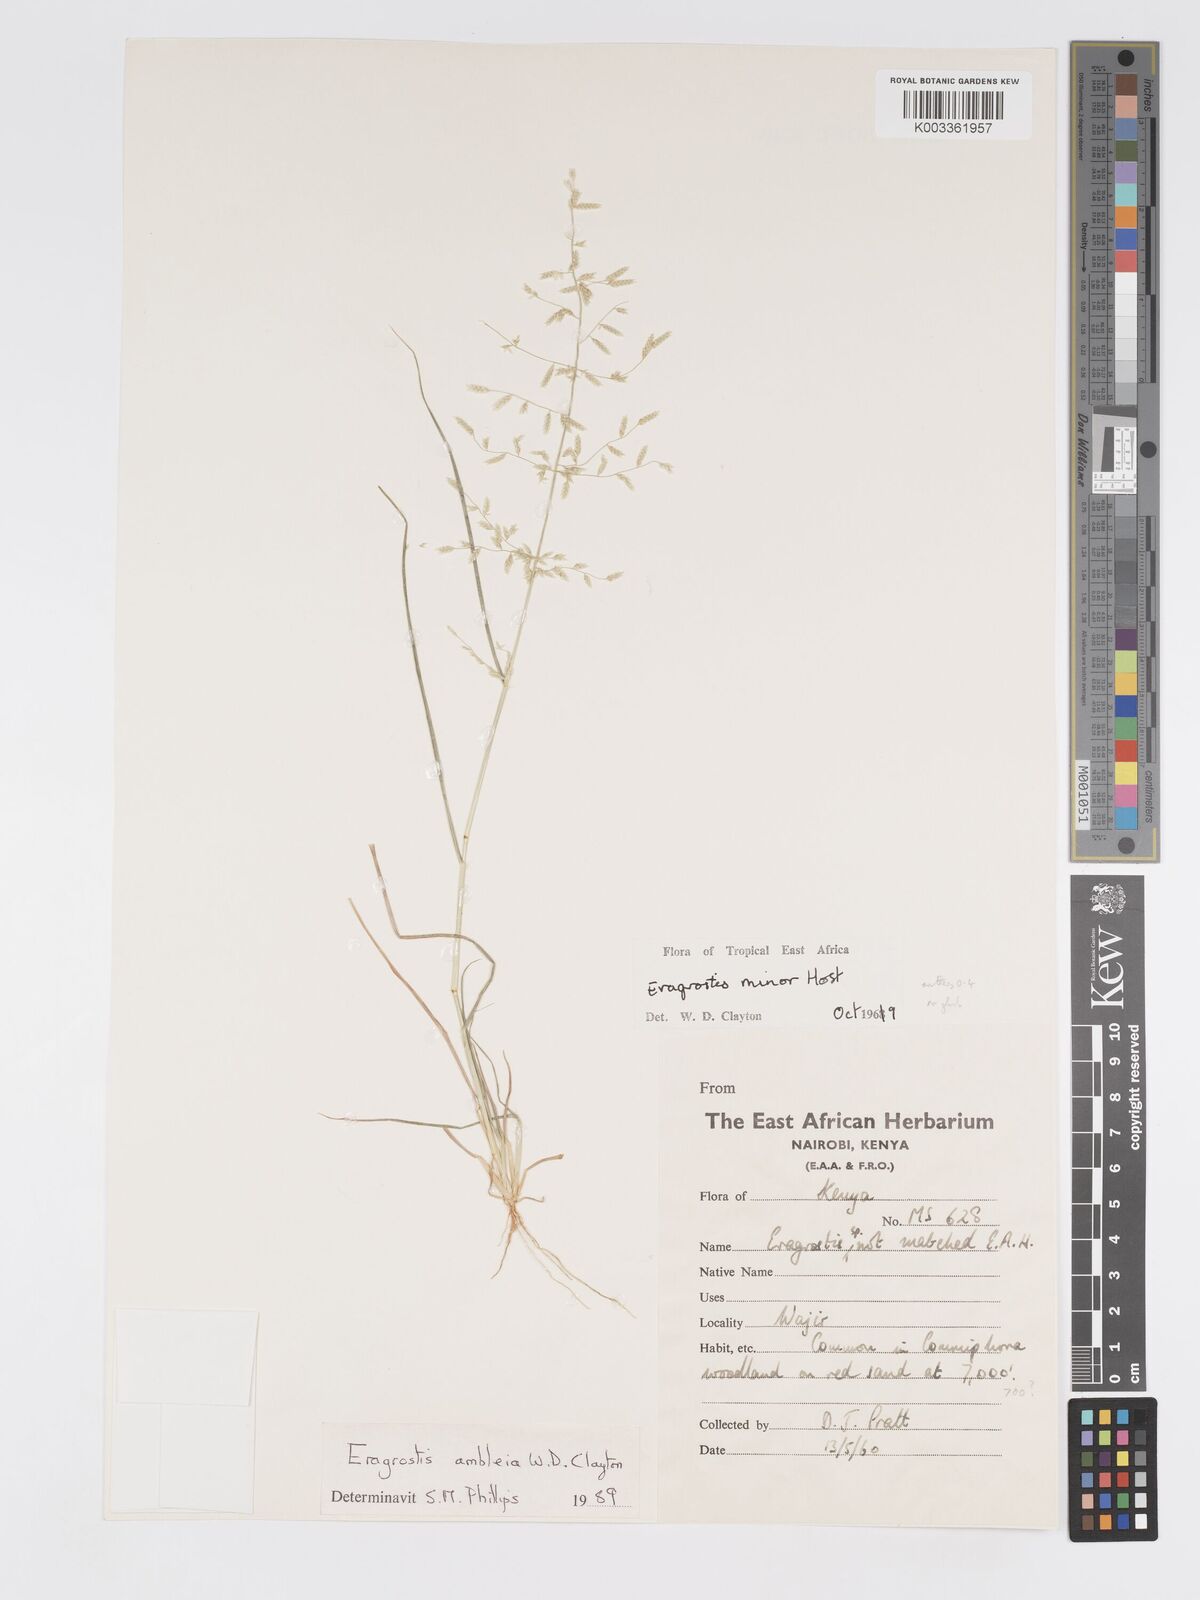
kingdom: Plantae
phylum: Tracheophyta
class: Liliopsida
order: Poales
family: Poaceae
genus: Eragrostis
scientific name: Eragrostis ambleia
